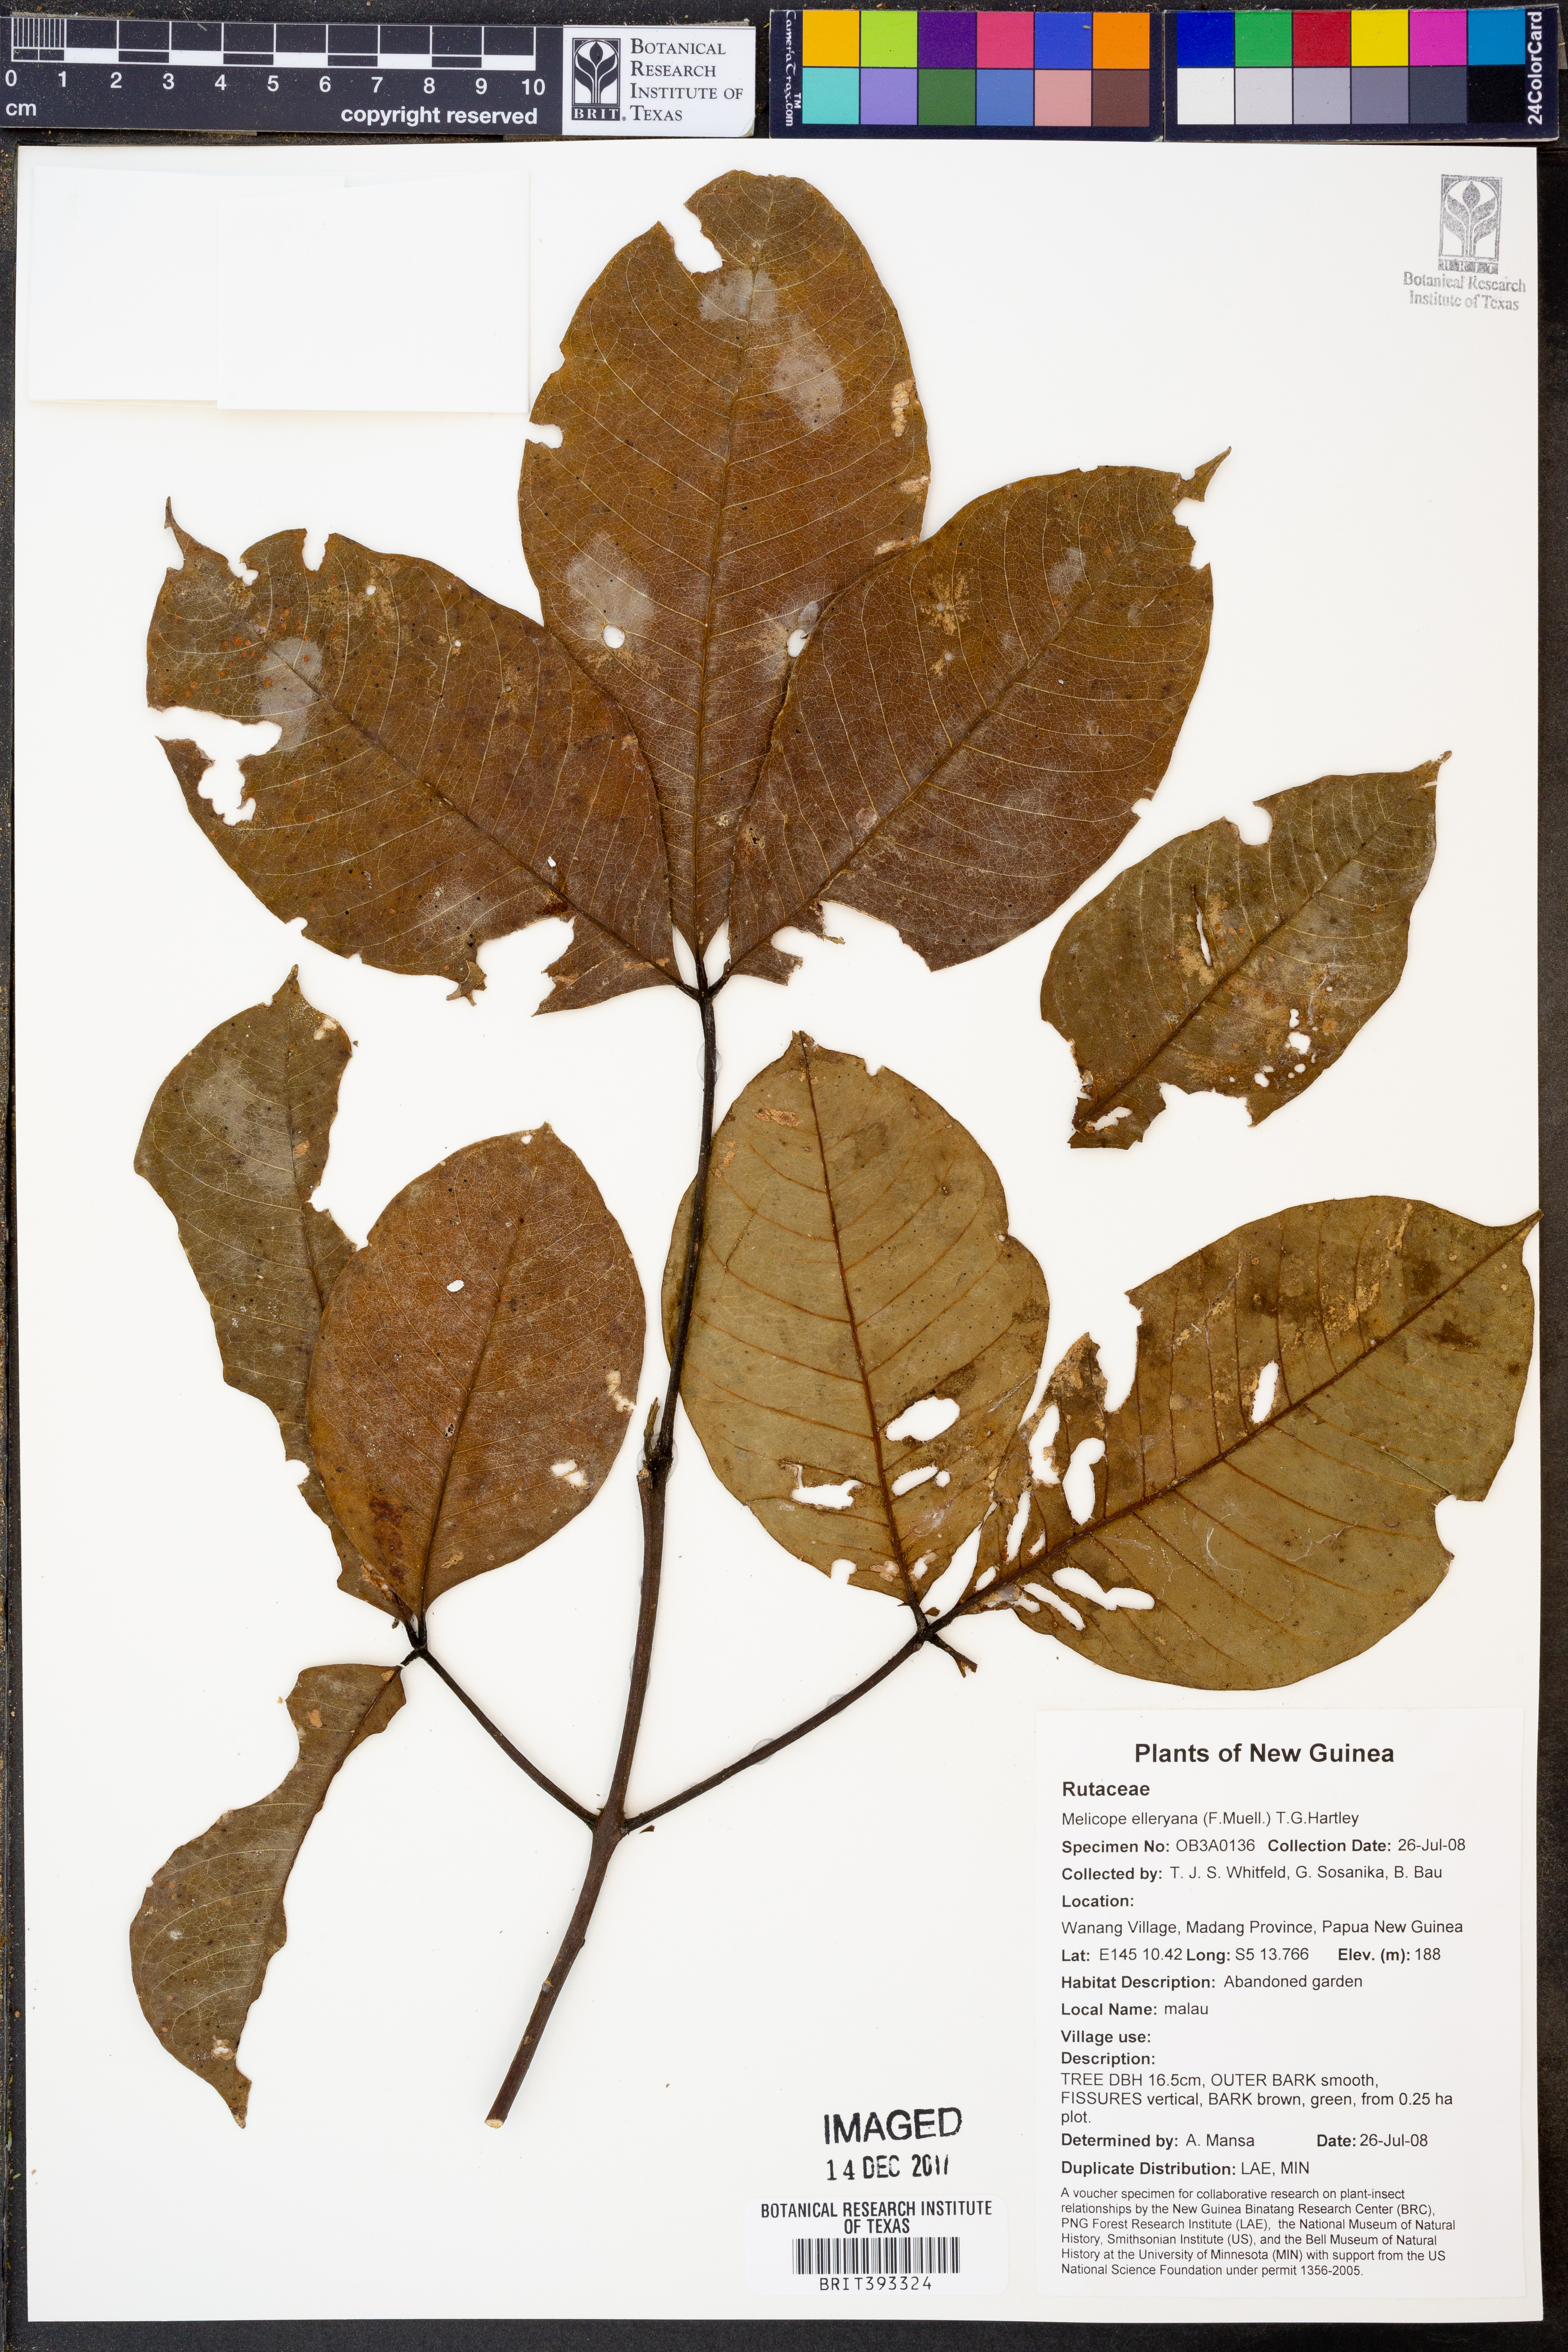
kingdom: Plantae
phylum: Tracheophyta
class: Magnoliopsida
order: Sapindales
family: Rutaceae
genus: Melicope
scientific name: Melicope elleryana
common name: Pink euodia
